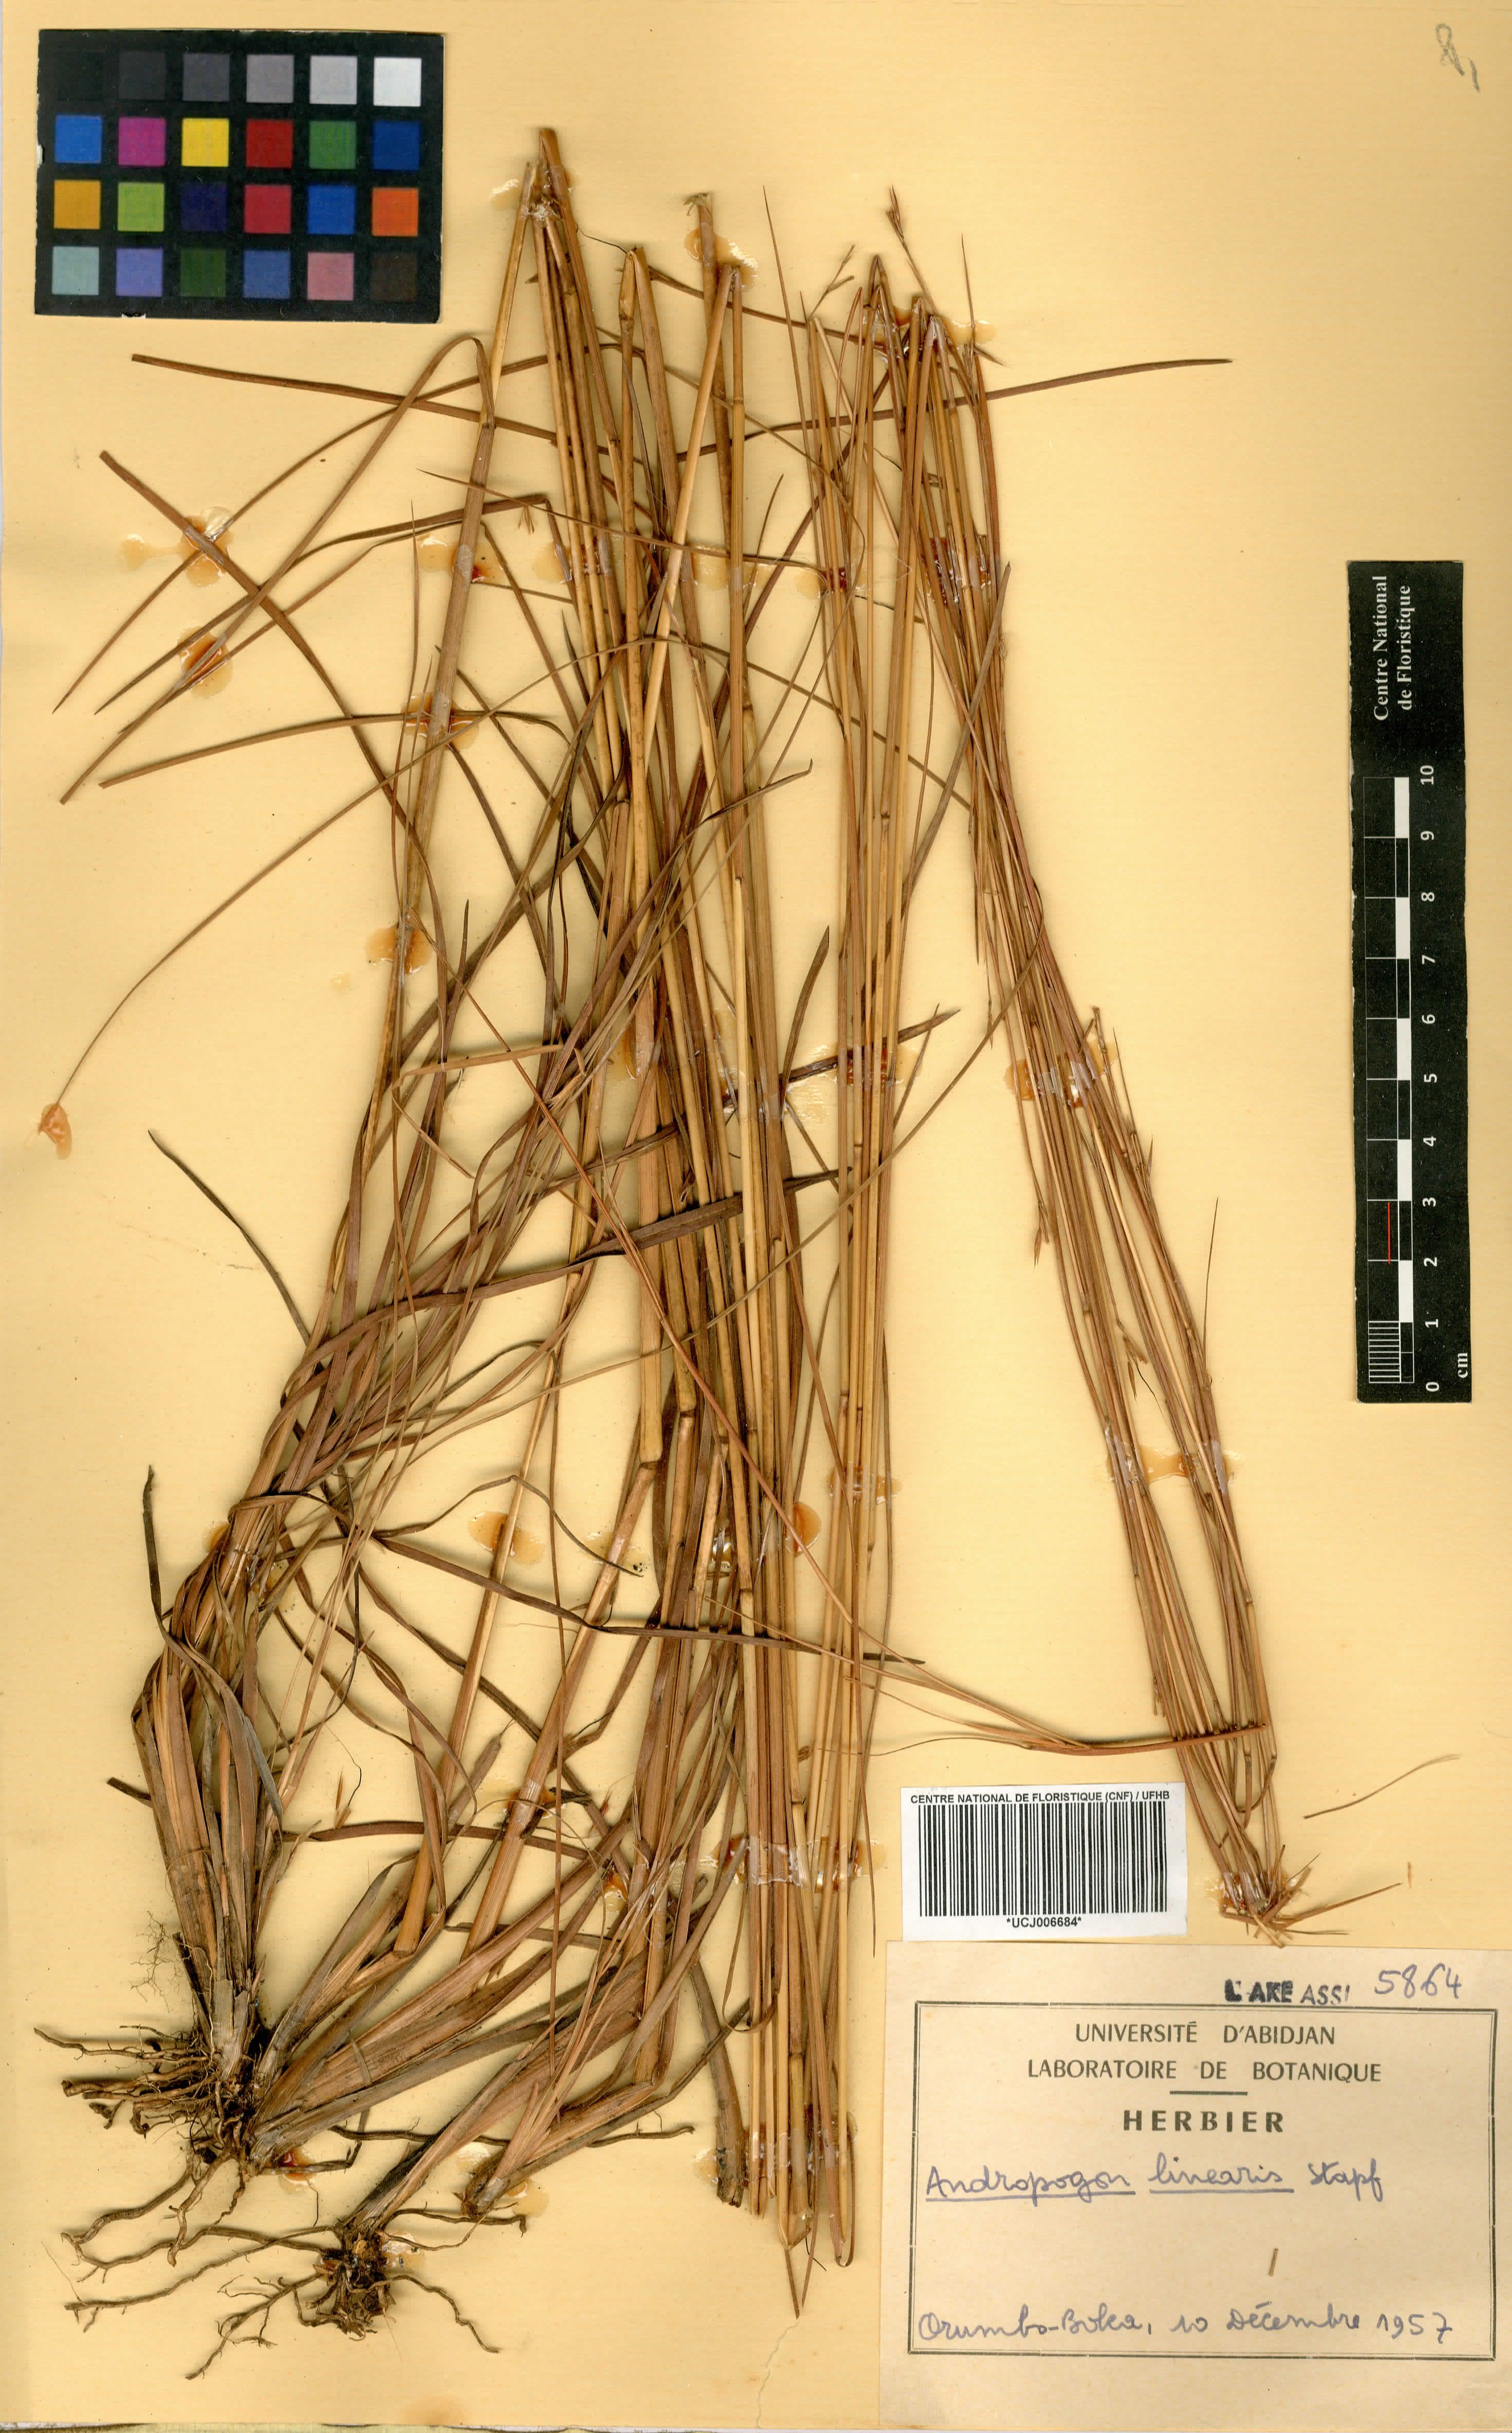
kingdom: Plantae
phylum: Tracheophyta
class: Liliopsida
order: Poales
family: Poaceae
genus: Andropogon
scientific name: Andropogon africanus
